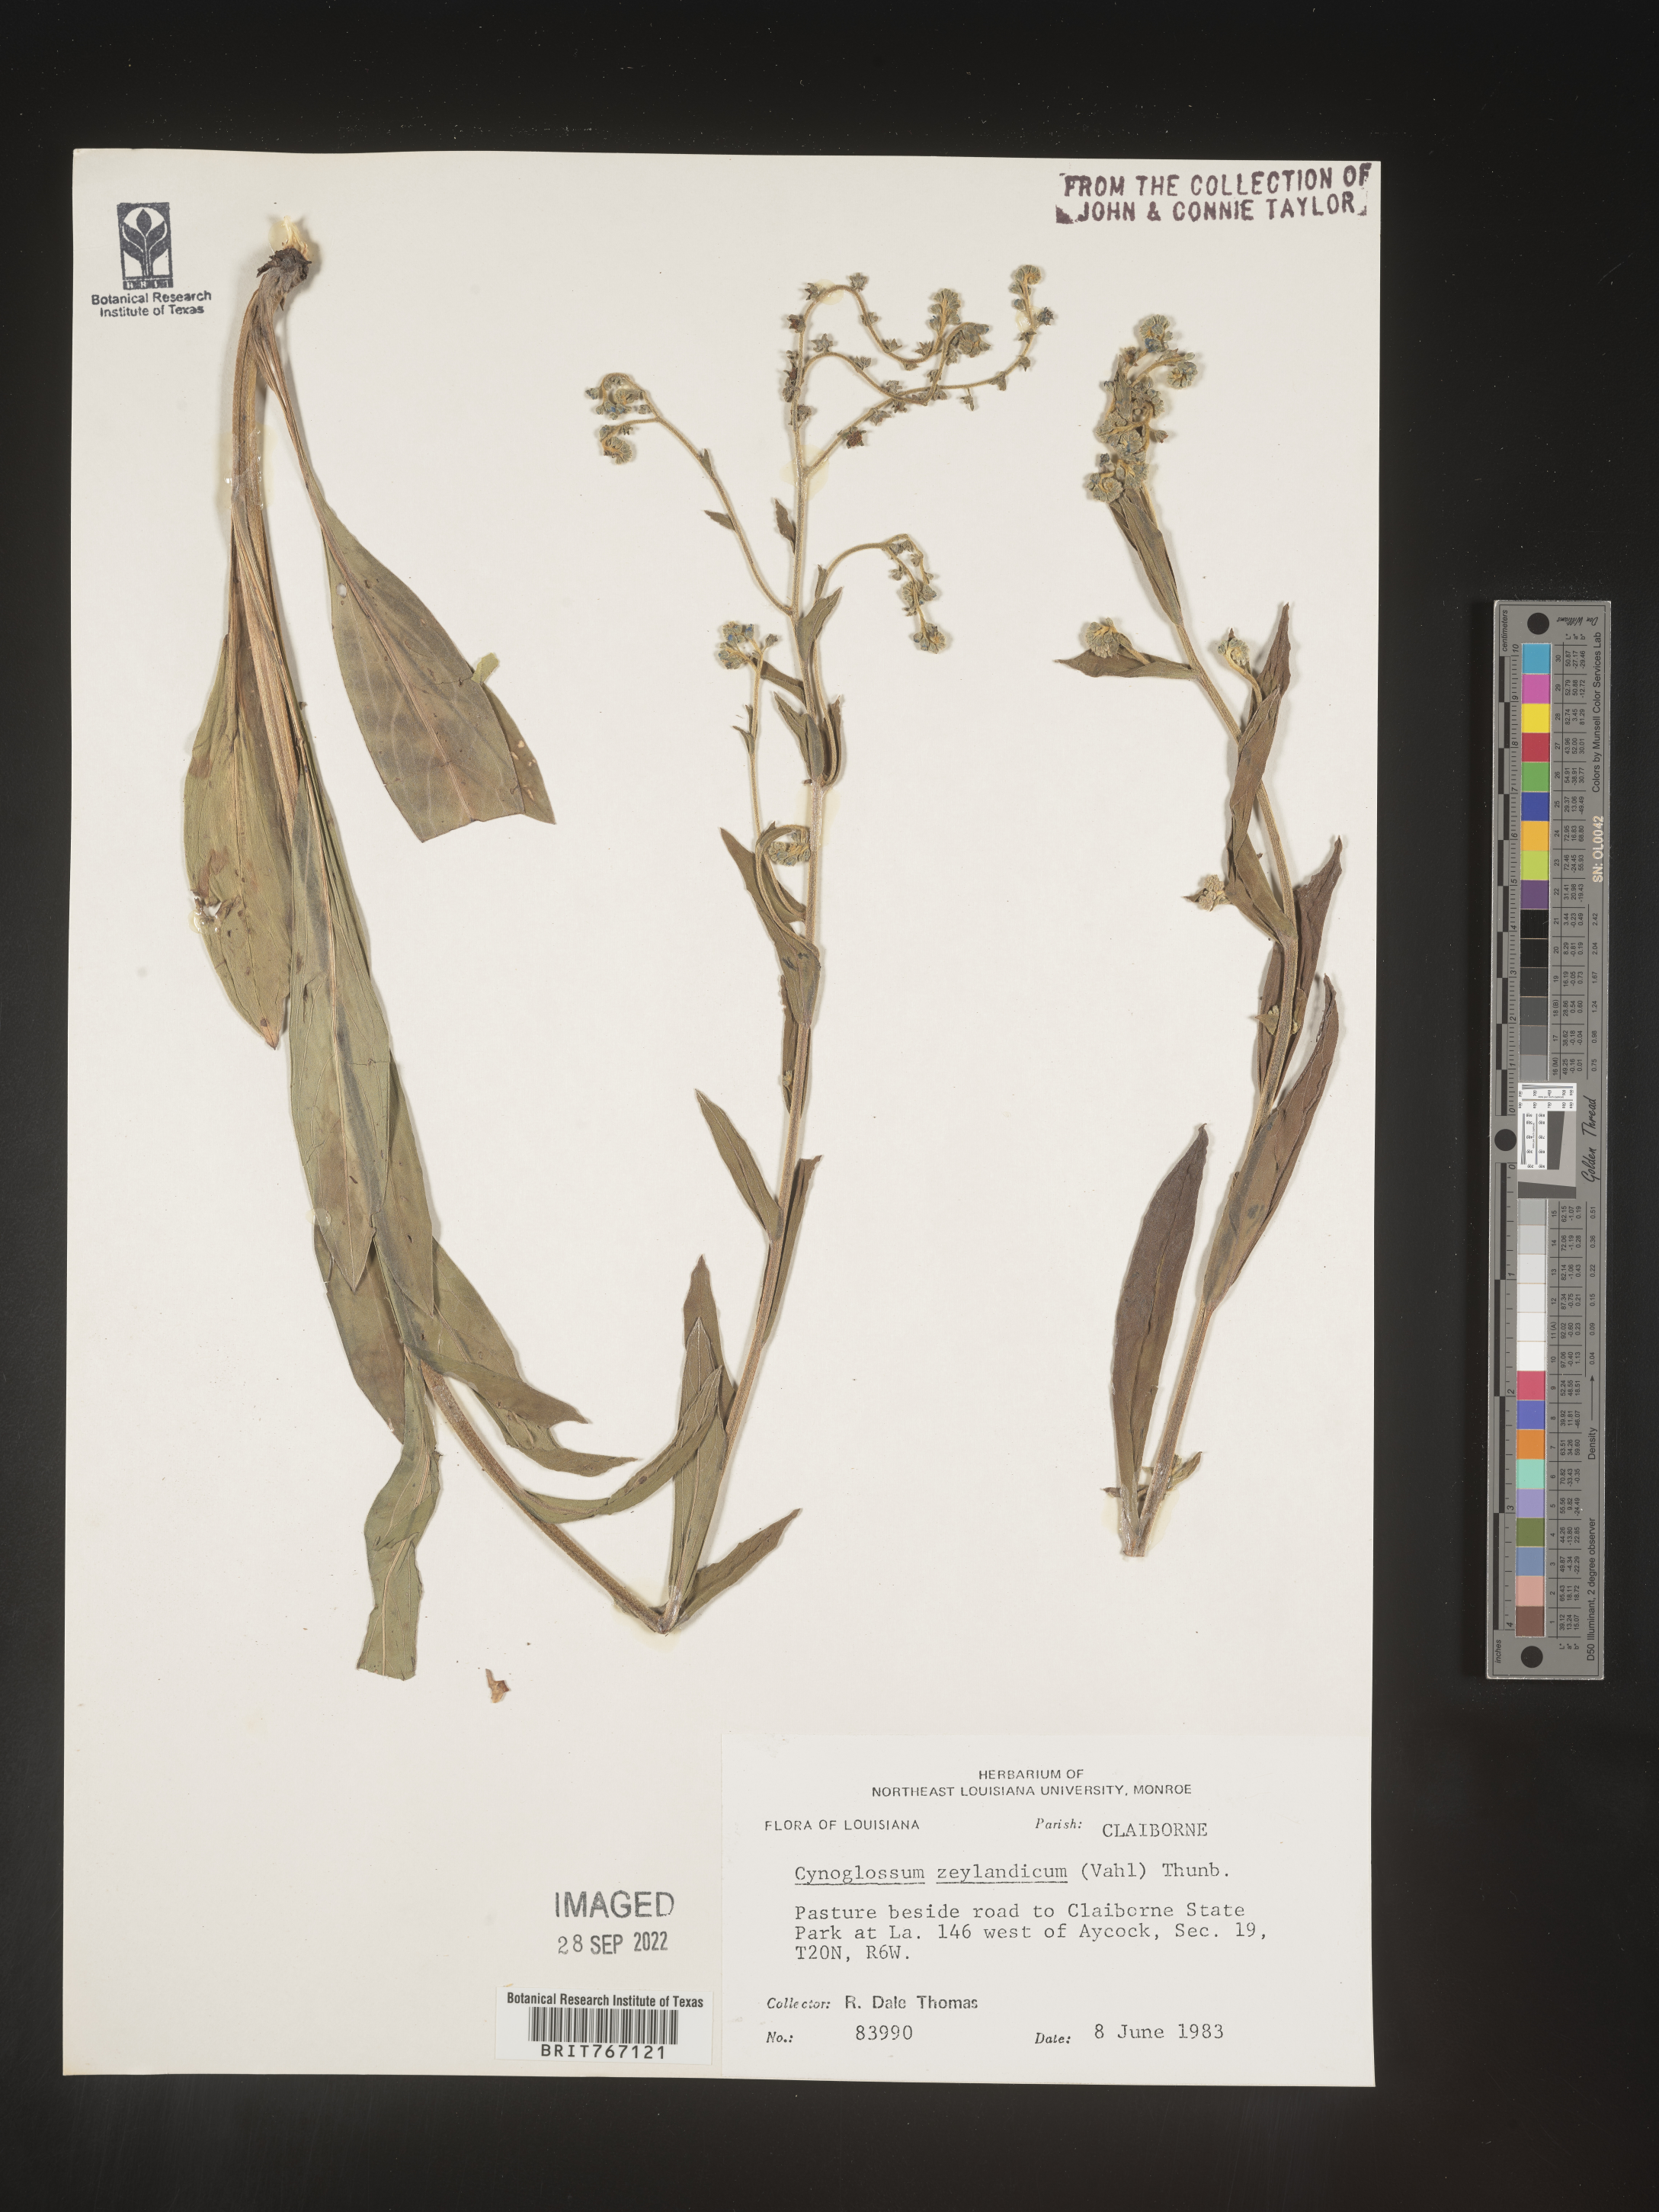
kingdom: Plantae
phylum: Tracheophyta
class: Magnoliopsida
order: Boraginales
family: Boraginaceae
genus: Cynoglossum
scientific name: Cynoglossum zeylanicum
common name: Ceylon hound's tongue
